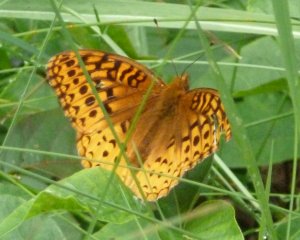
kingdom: Animalia
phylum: Arthropoda
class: Insecta
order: Lepidoptera
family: Nymphalidae
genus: Speyeria
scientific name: Speyeria cybele
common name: Great Spangled Fritillary
